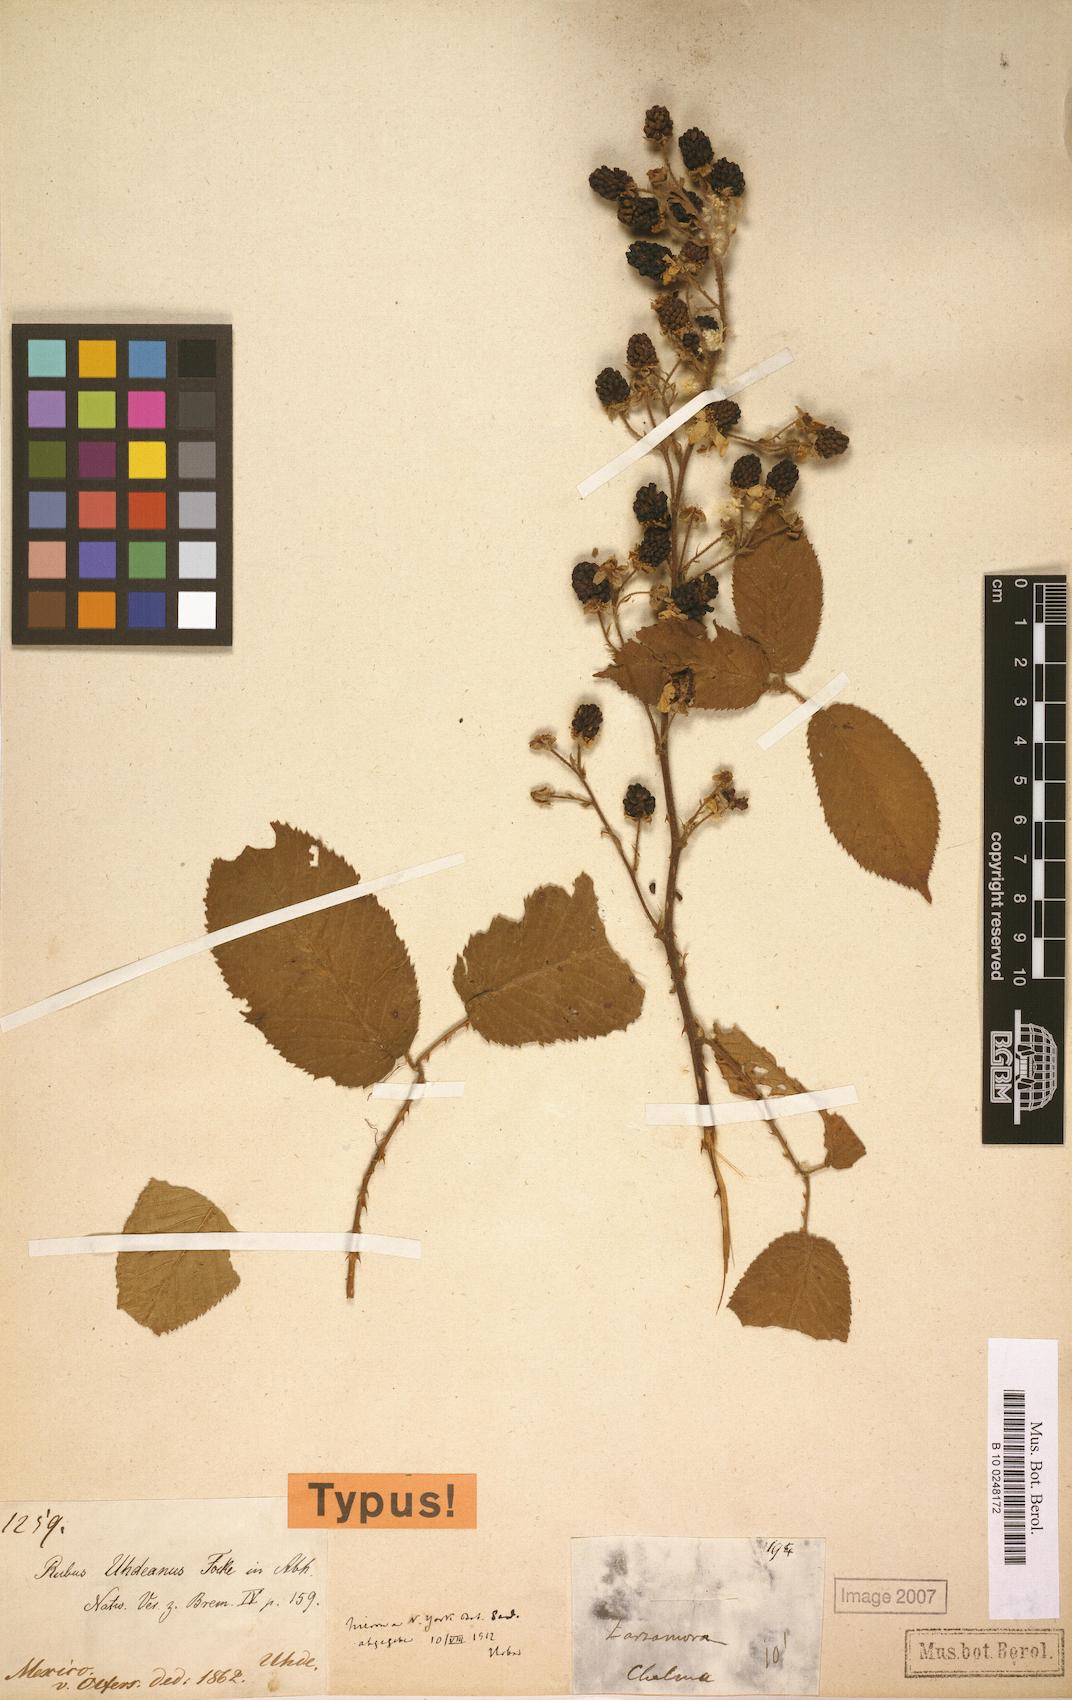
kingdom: Plantae
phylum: Tracheophyta
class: Magnoliopsida
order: Rosales
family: Rosaceae
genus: Rubus
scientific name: Rubus uhdeanus
